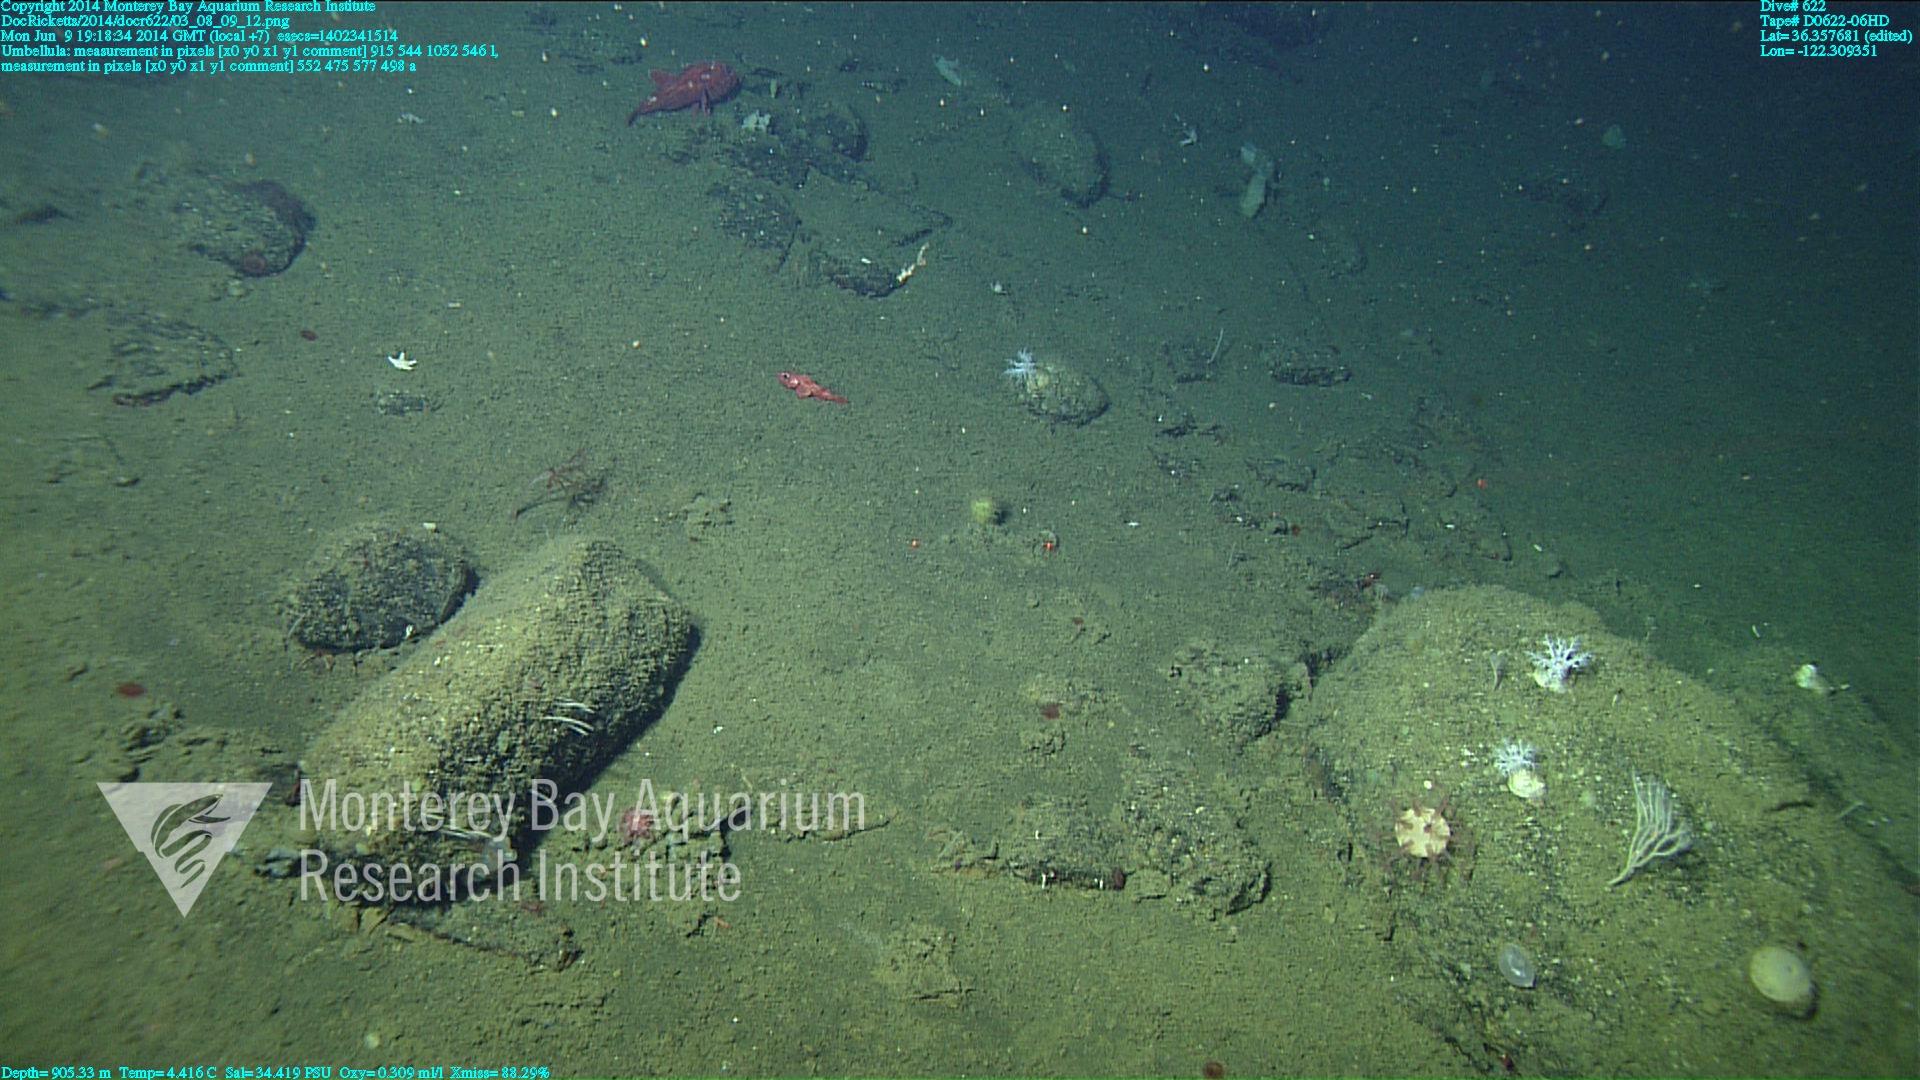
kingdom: Animalia
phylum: Cnidaria
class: Anthozoa
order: Scleralcyonacea
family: Umbellulidae
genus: Umbellula
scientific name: Umbellula lindahli
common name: Lindahl's droopy sea pen
